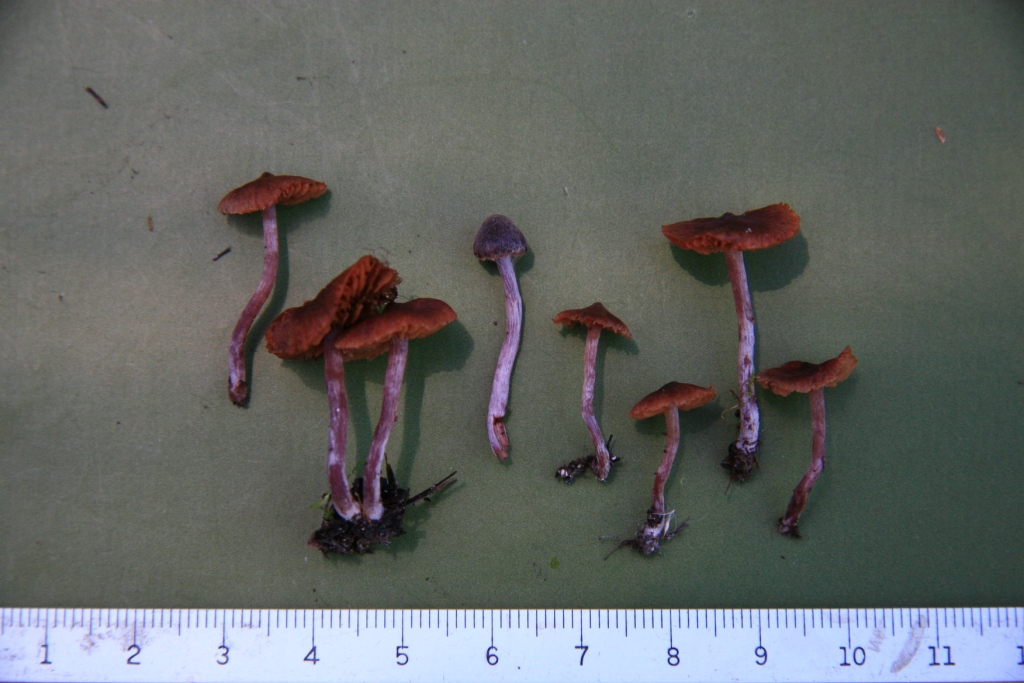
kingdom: Fungi
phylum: Basidiomycota
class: Agaricomycetes
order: Agaricales
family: Cortinariaceae
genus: Cortinarius
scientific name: Cortinarius decipiens
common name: mørkpuklet slørhat
